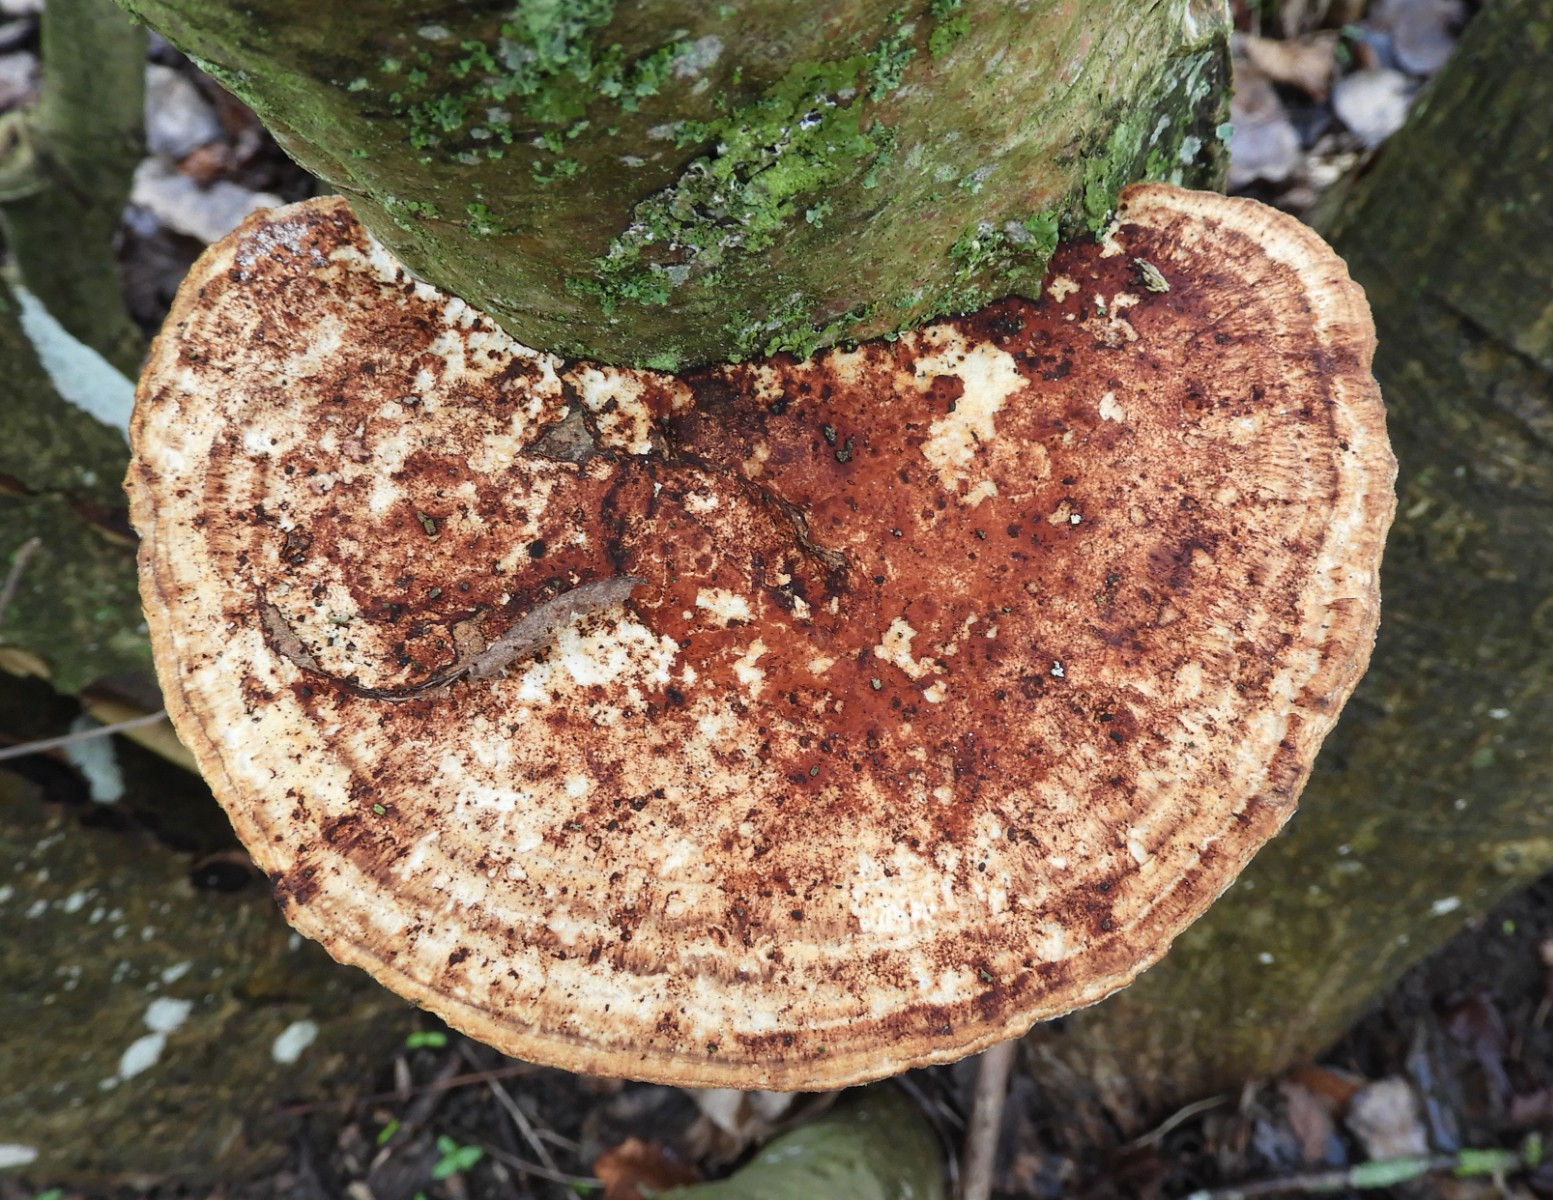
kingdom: Fungi
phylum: Basidiomycota
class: Agaricomycetes
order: Polyporales
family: Polyporaceae
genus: Daedaleopsis
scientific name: Daedaleopsis confragosa
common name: rødmende læderporesvamp
